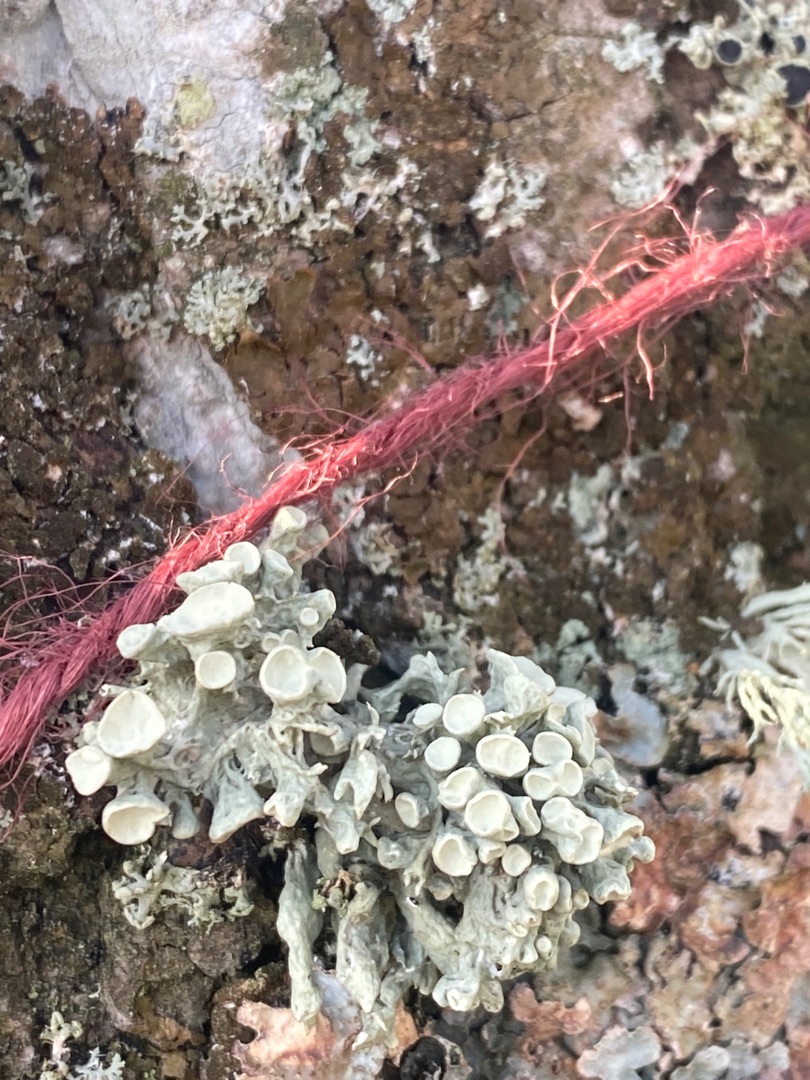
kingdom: Fungi
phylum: Ascomycota
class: Lecanoromycetes
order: Lecanorales
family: Ramalinaceae
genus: Ramalina
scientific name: Ramalina fastigiata
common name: Tue-grenlav
